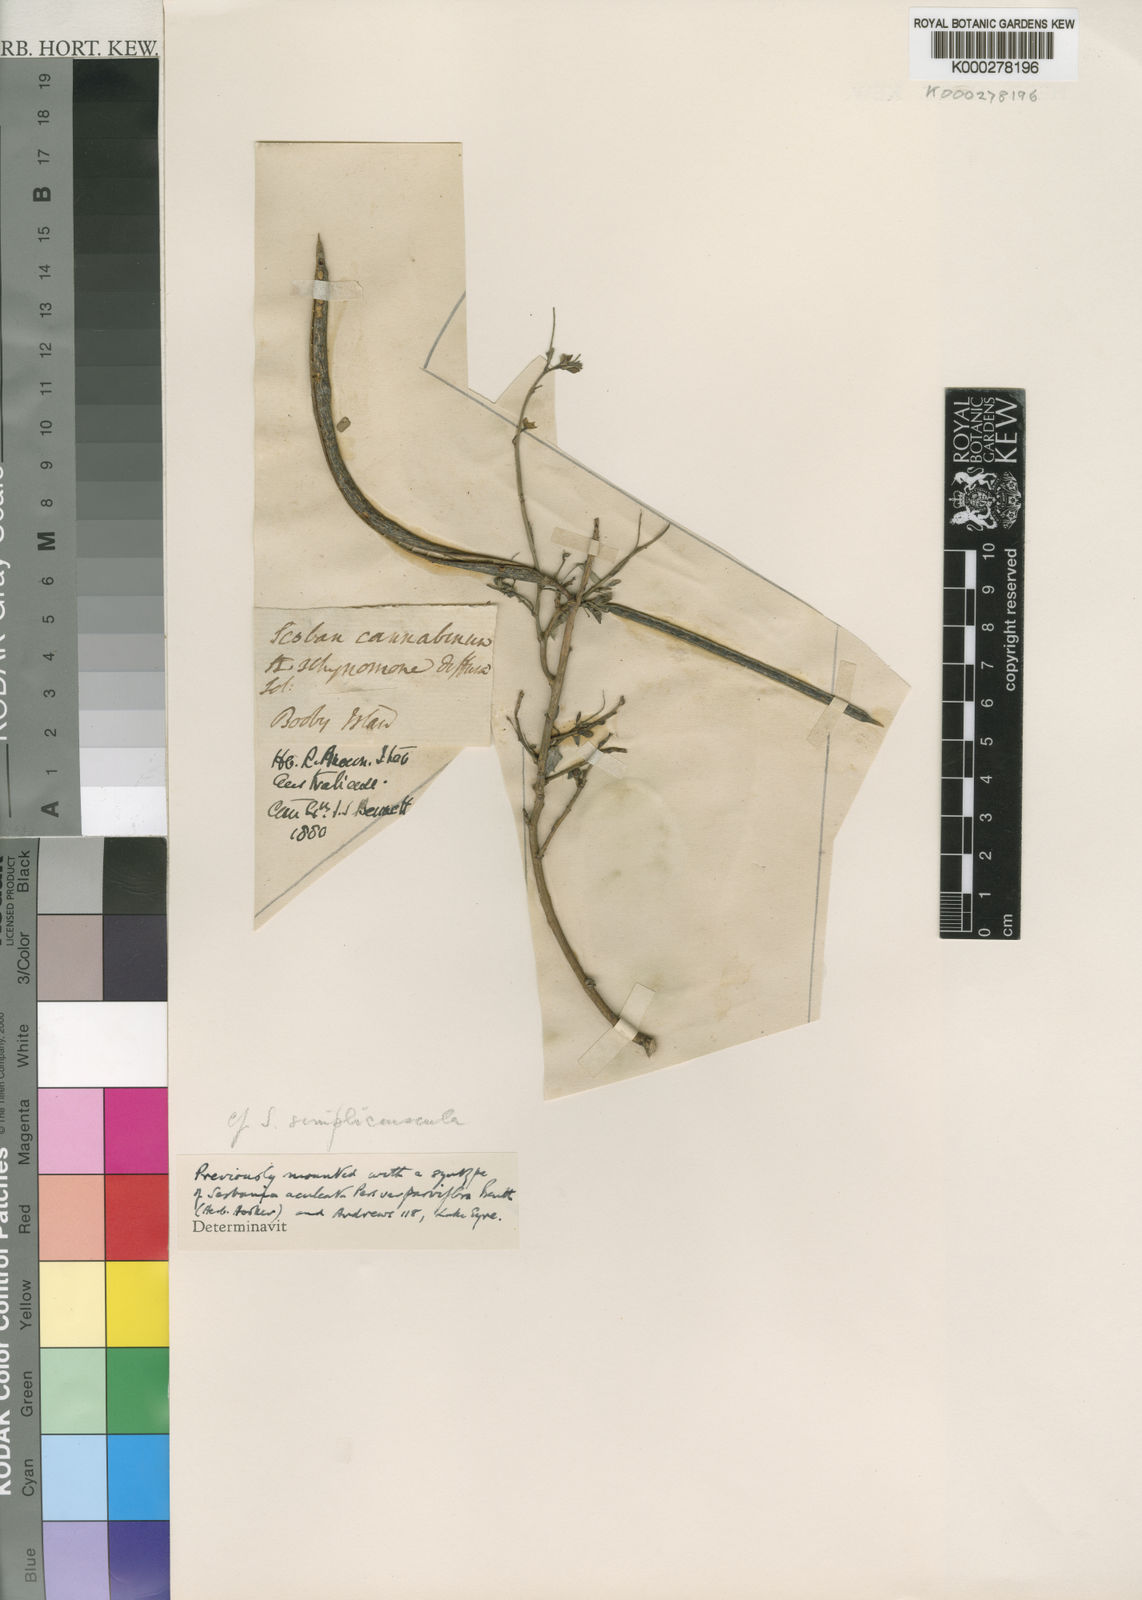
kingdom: Plantae
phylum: Tracheophyta
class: Magnoliopsida
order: Fabales
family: Fabaceae
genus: Sesbania
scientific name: Sesbania simpliciuscula
